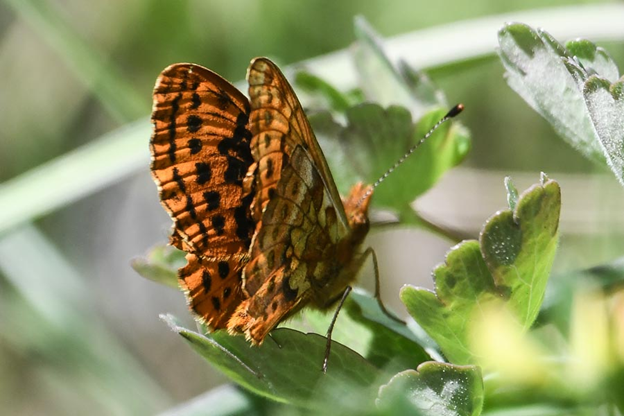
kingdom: Animalia
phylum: Arthropoda
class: Insecta
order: Lepidoptera
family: Nymphalidae
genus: Boloria
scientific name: Boloria epithore
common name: Pacific Fritillary
